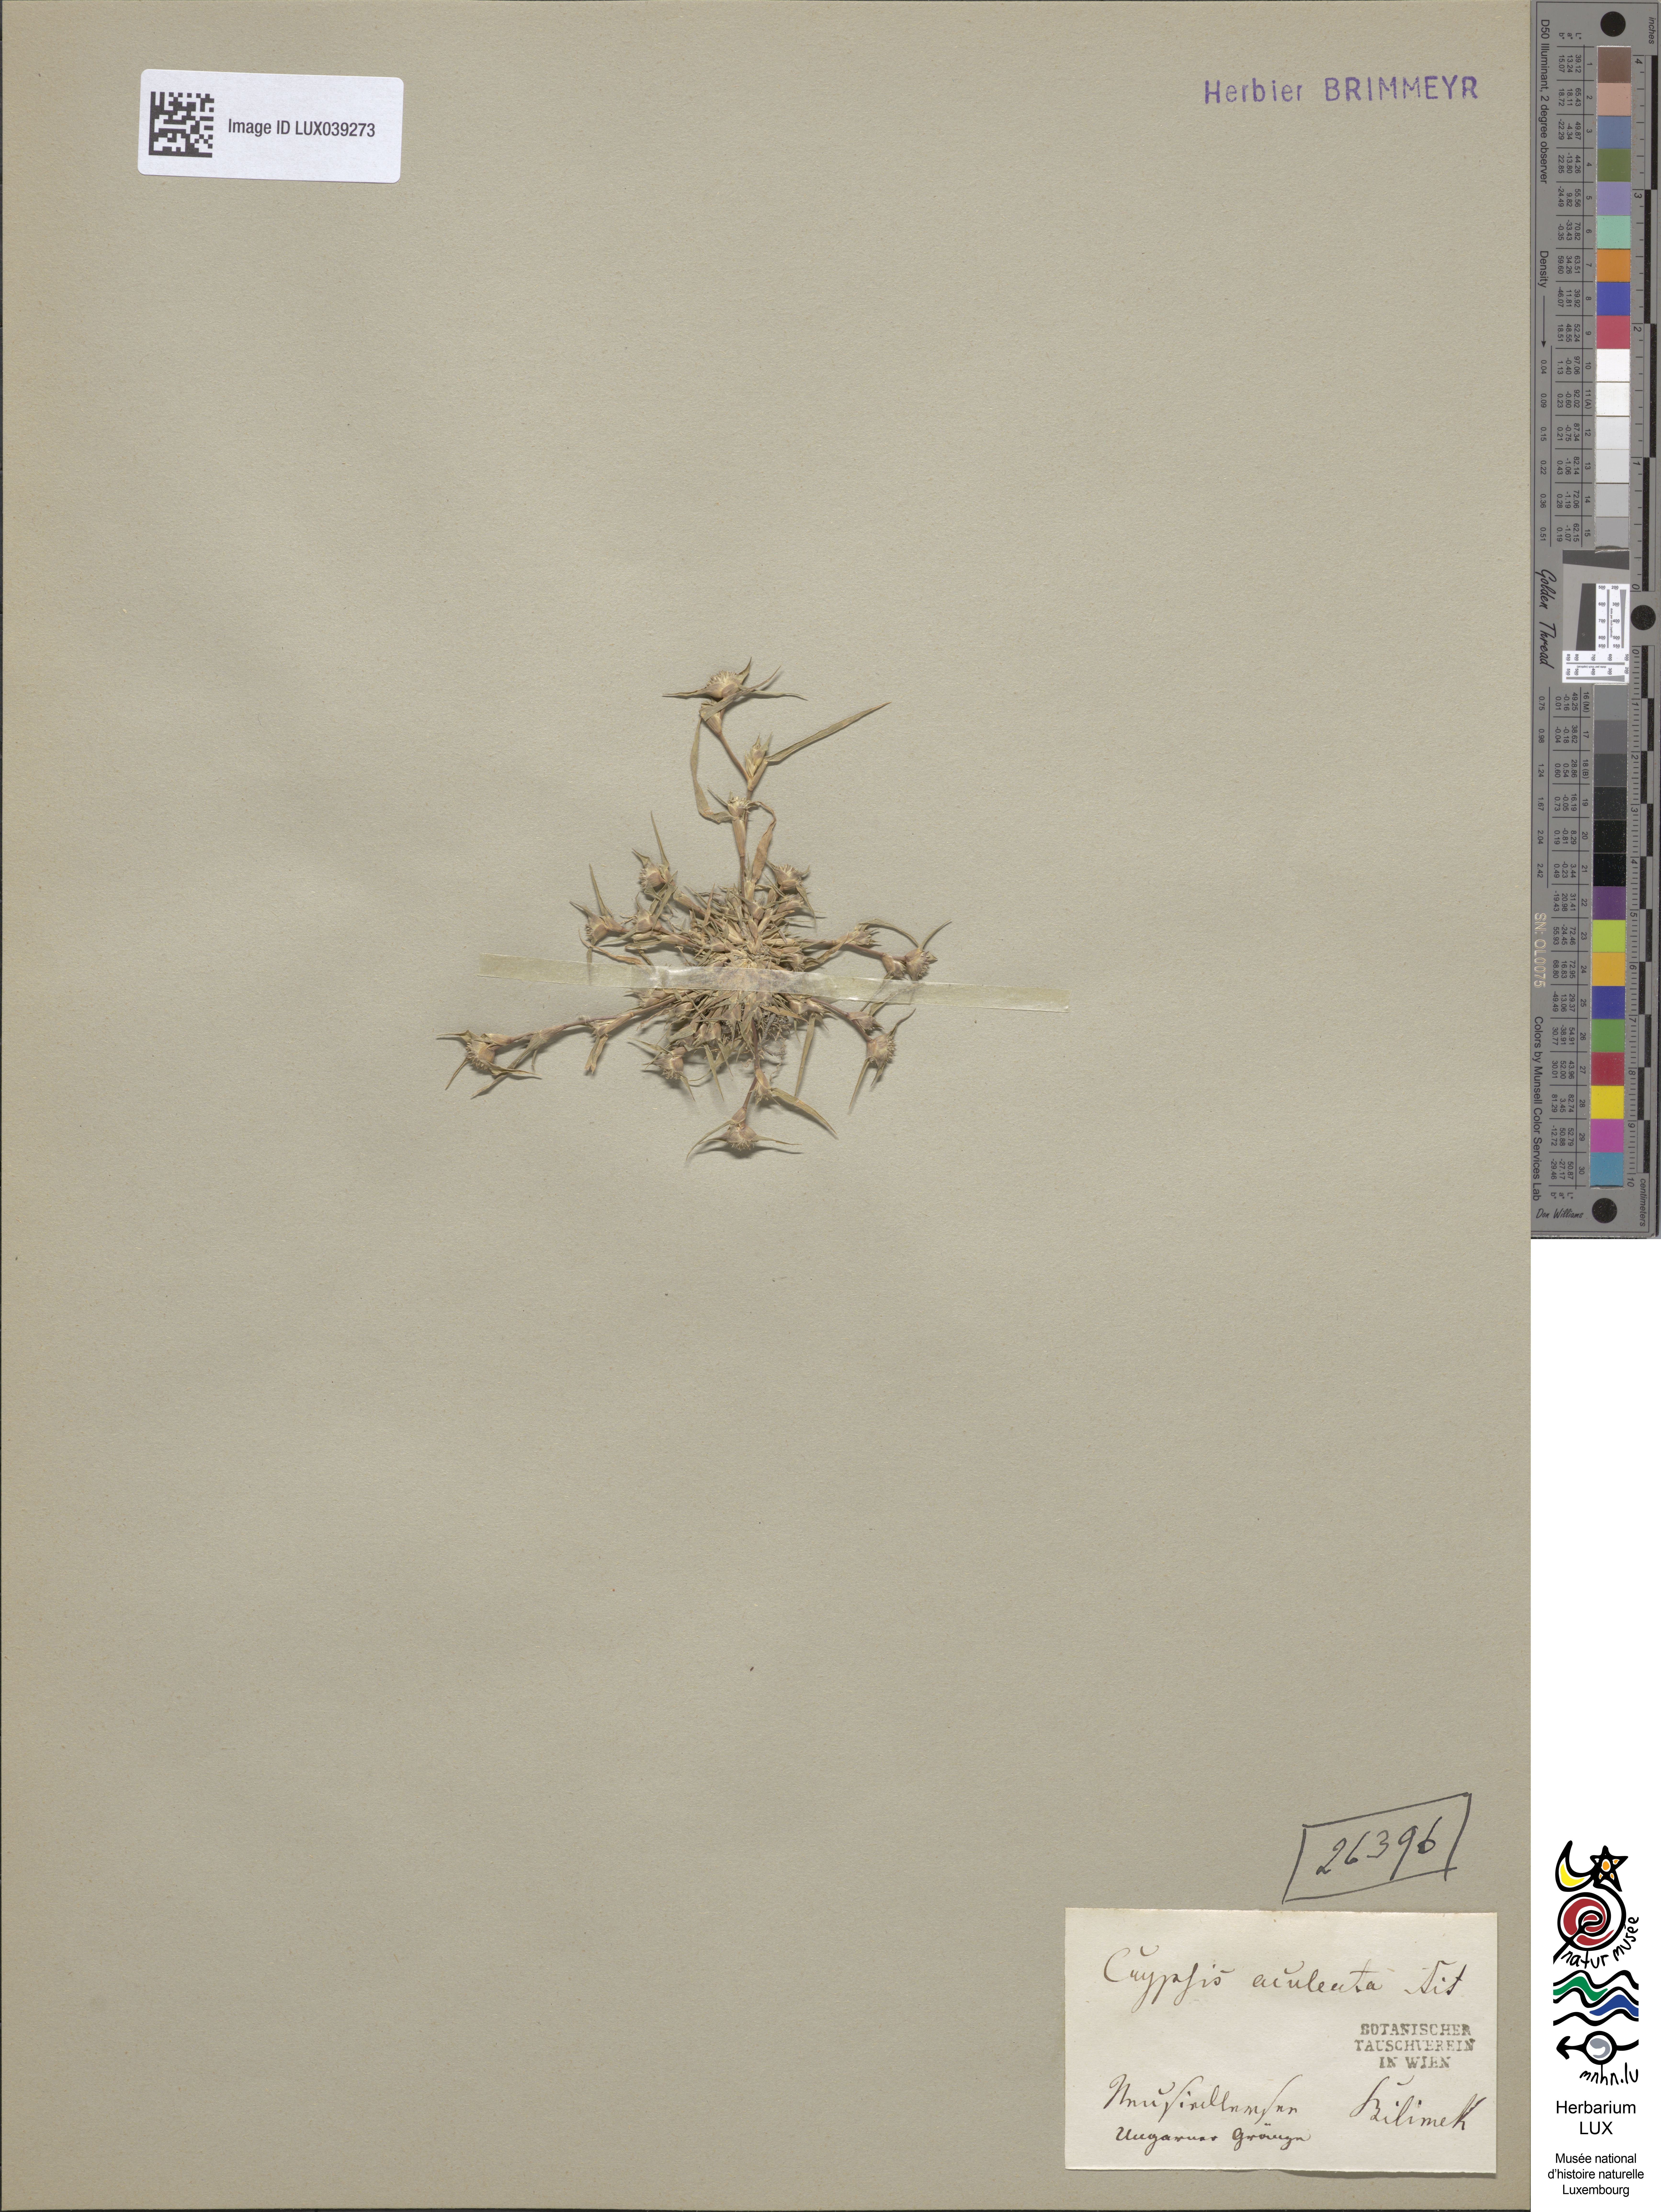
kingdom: Plantae
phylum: Tracheophyta
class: Liliopsida
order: Poales
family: Poaceae
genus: Sporobolus
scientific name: Sporobolus aculeatus
